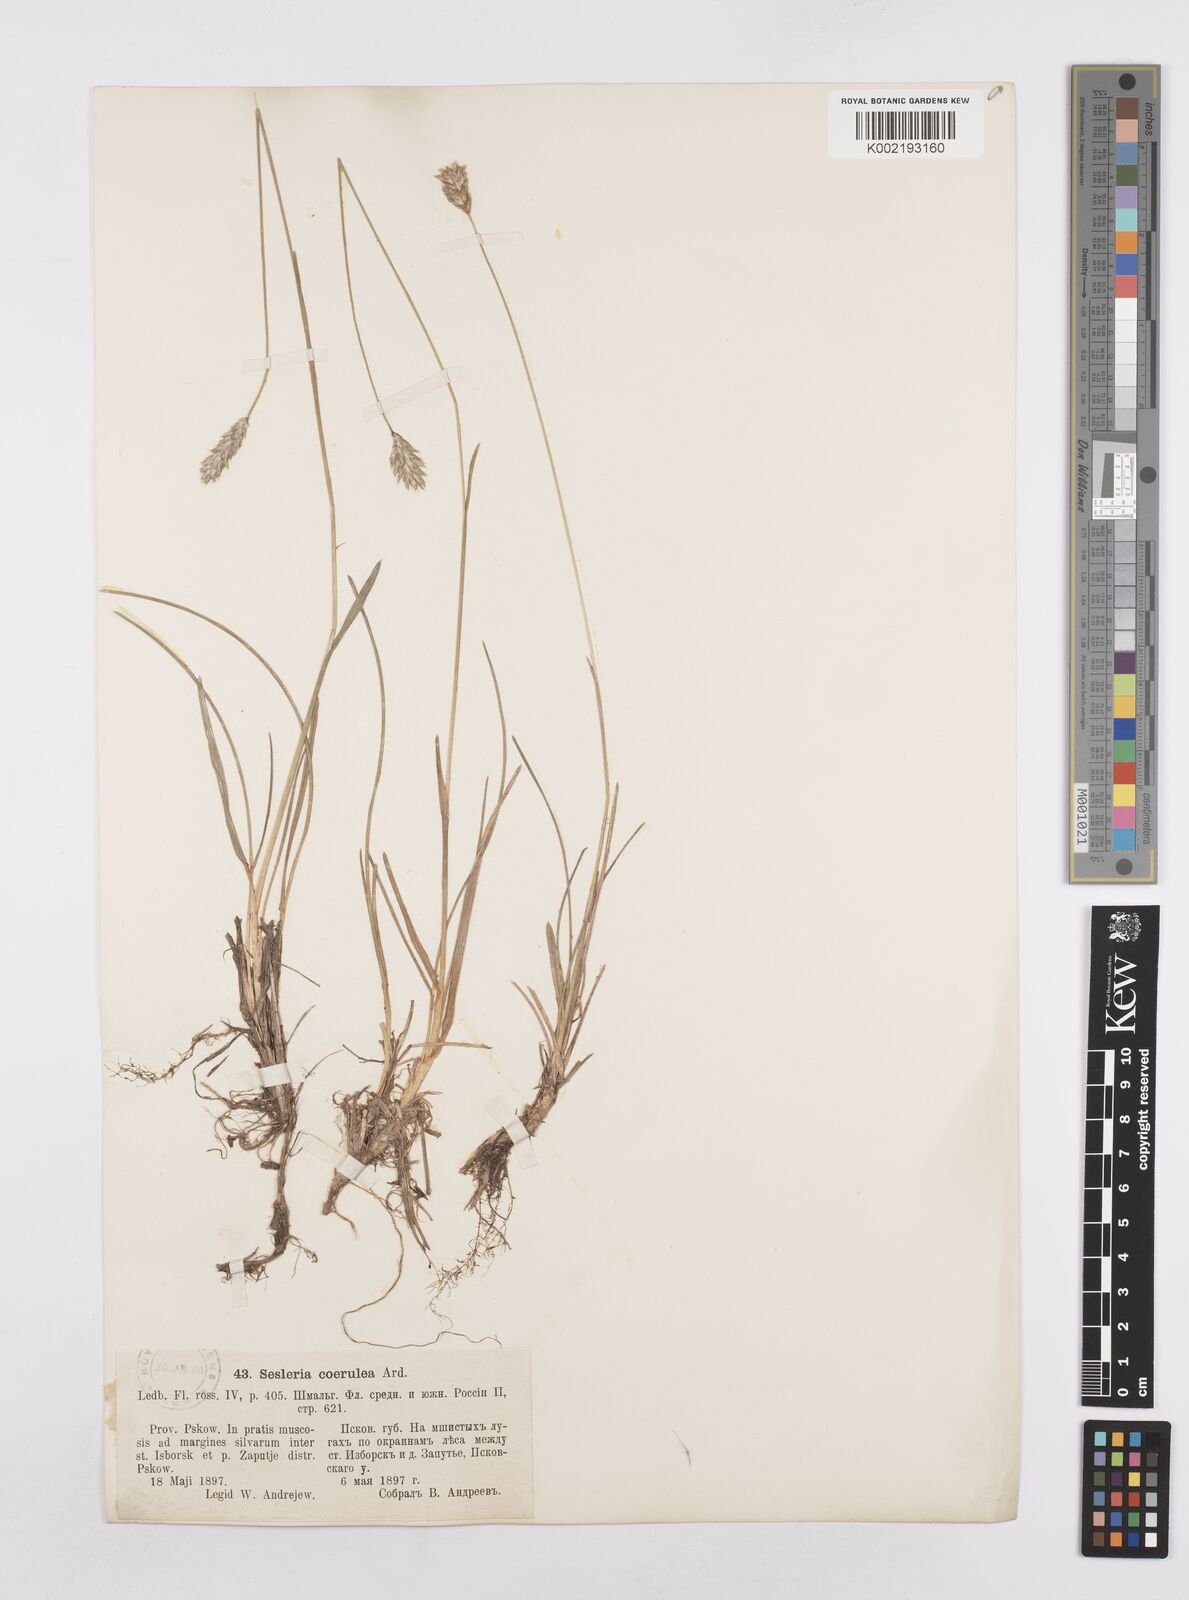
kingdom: Plantae
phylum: Tracheophyta
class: Liliopsida
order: Poales
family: Poaceae
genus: Sesleria
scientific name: Sesleria caerulea
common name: Blue moor-grass
